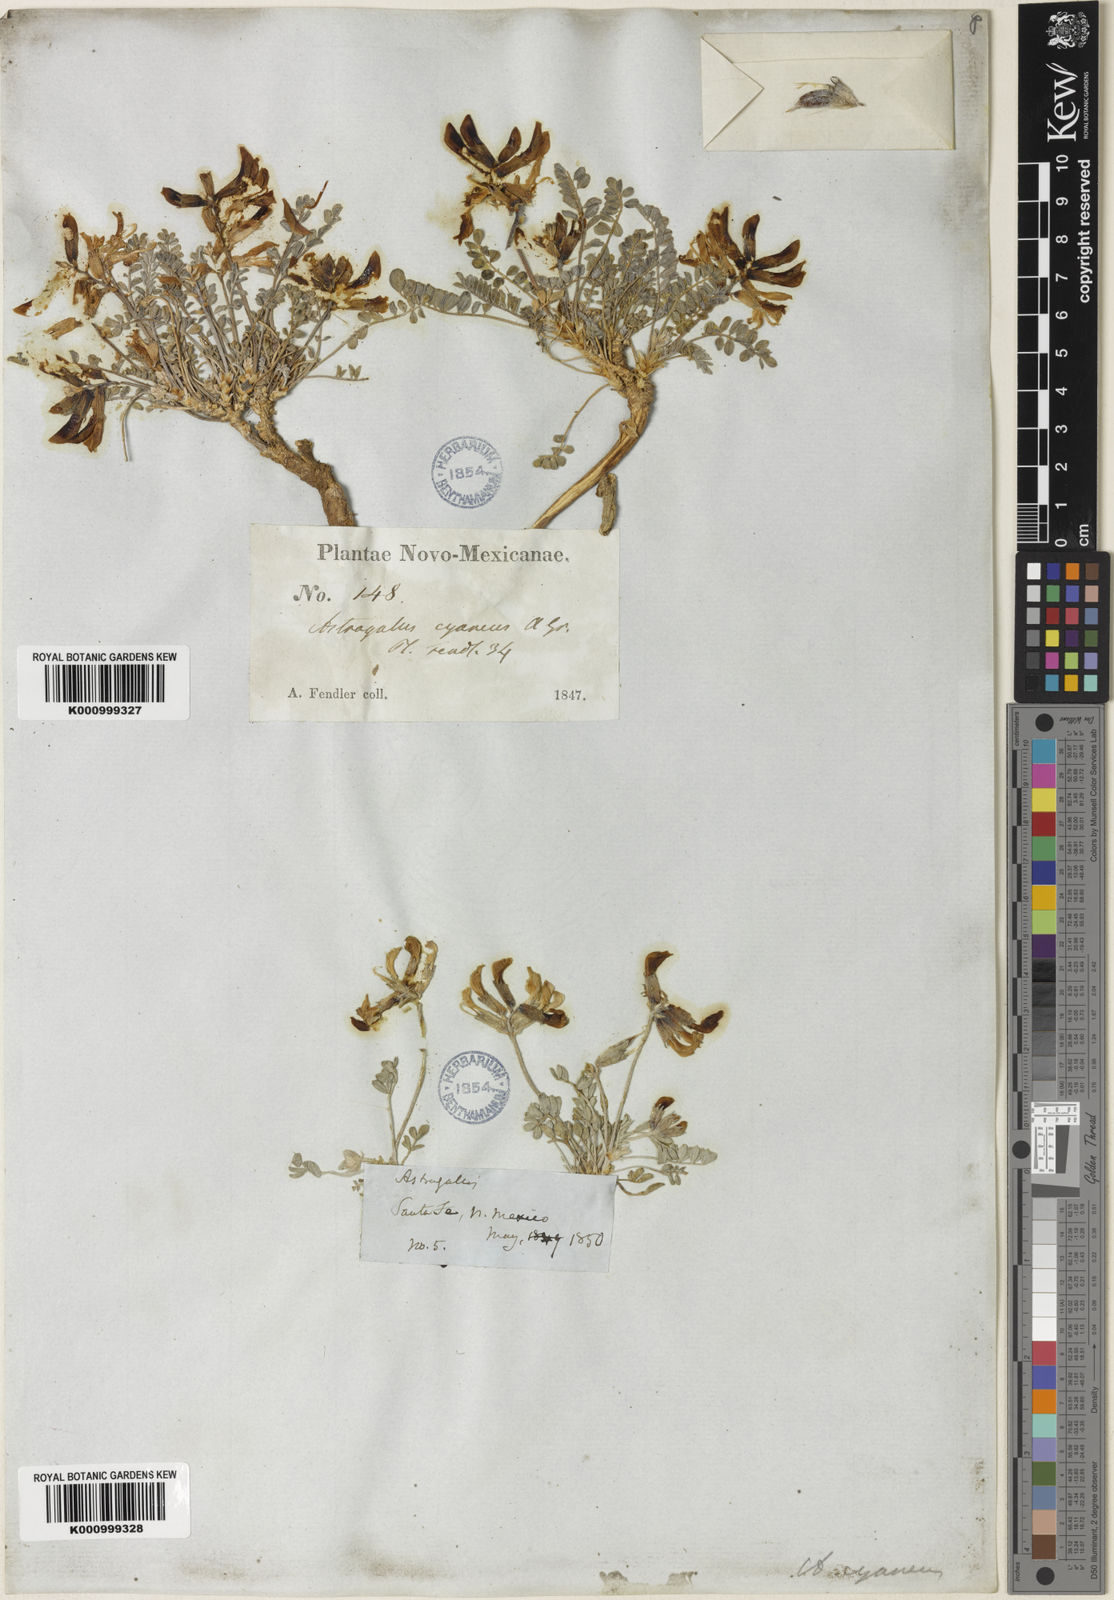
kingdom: Plantae
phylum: Tracheophyta
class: Magnoliopsida
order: Fabales
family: Fabaceae
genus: Astragalus
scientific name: Astragalus shortianus
